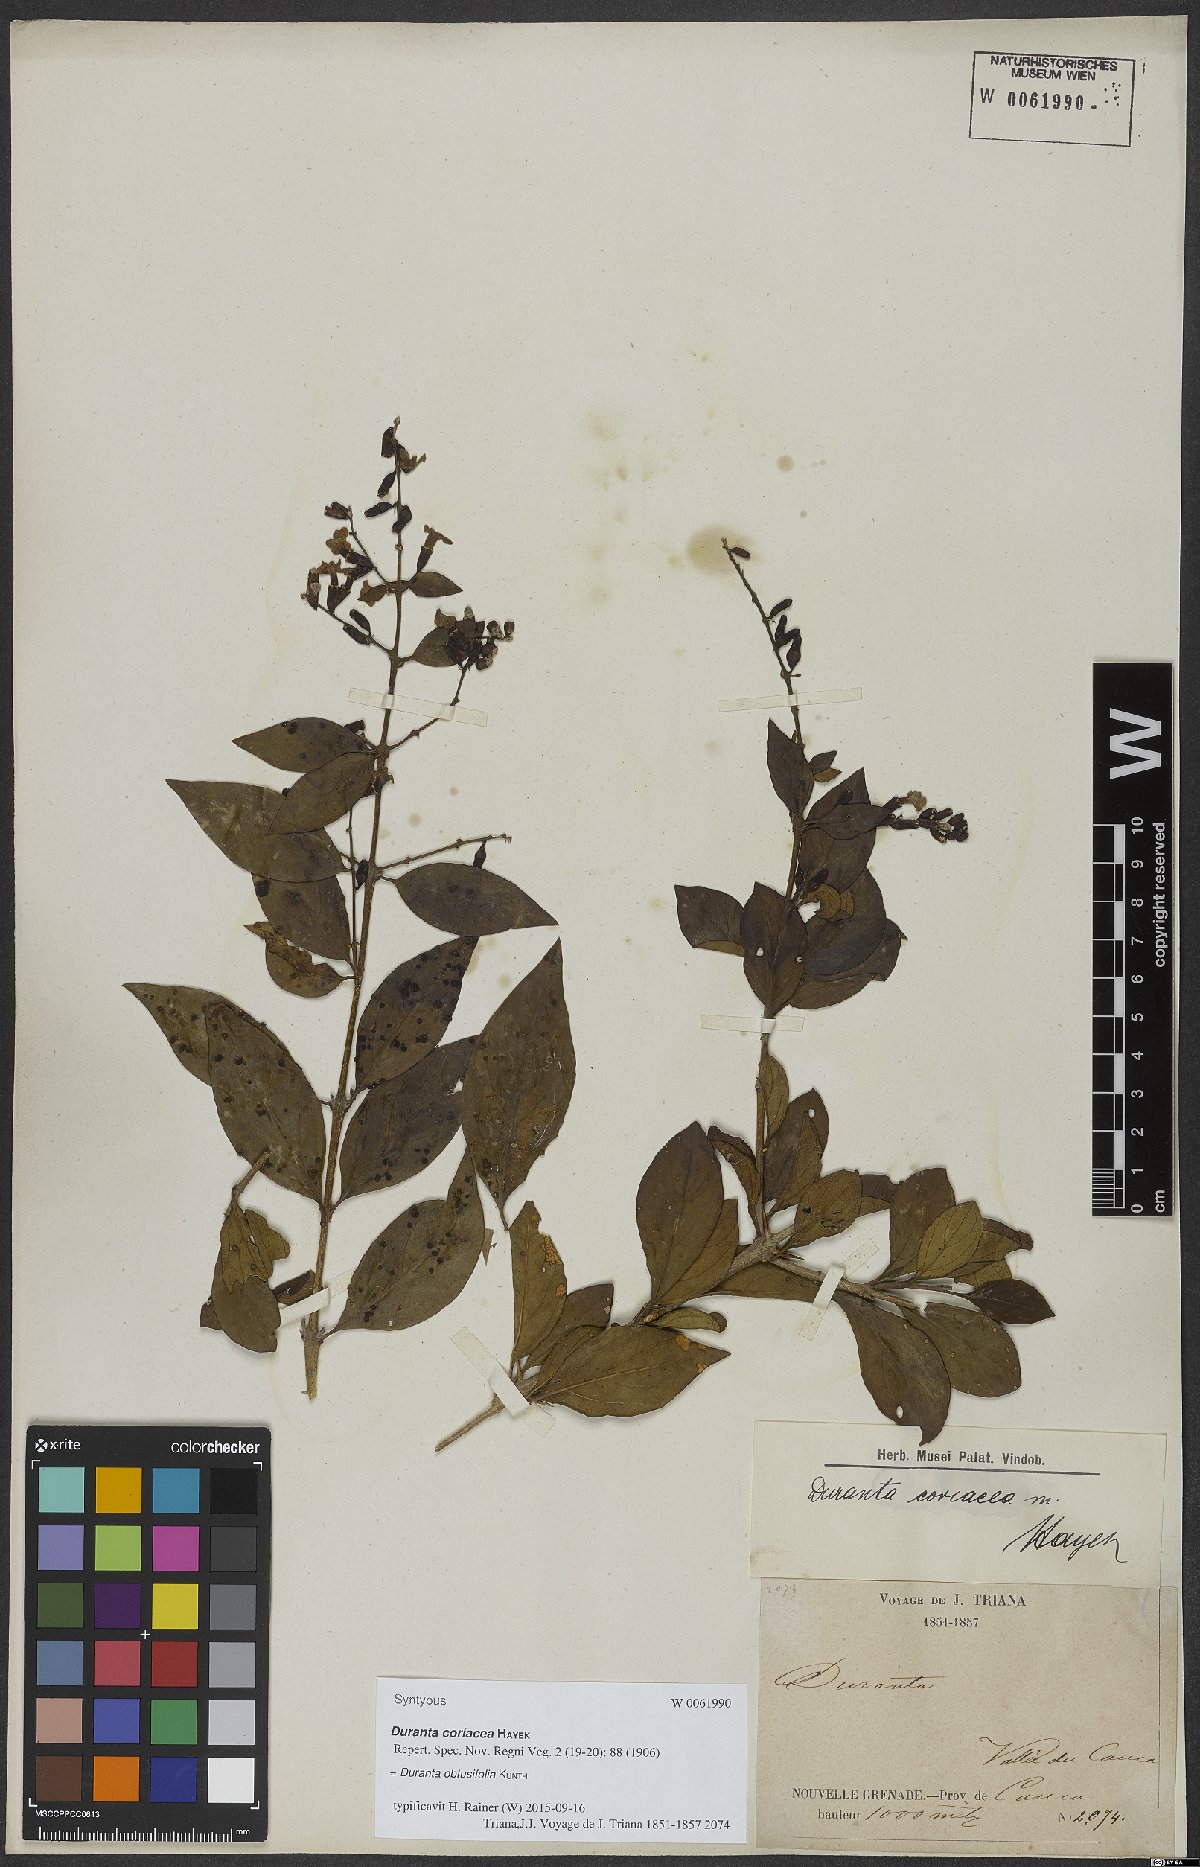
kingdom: Plantae
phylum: Tracheophyta
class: Magnoliopsida
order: Lamiales
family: Verbenaceae
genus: Duranta
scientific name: Duranta obtusifolia
